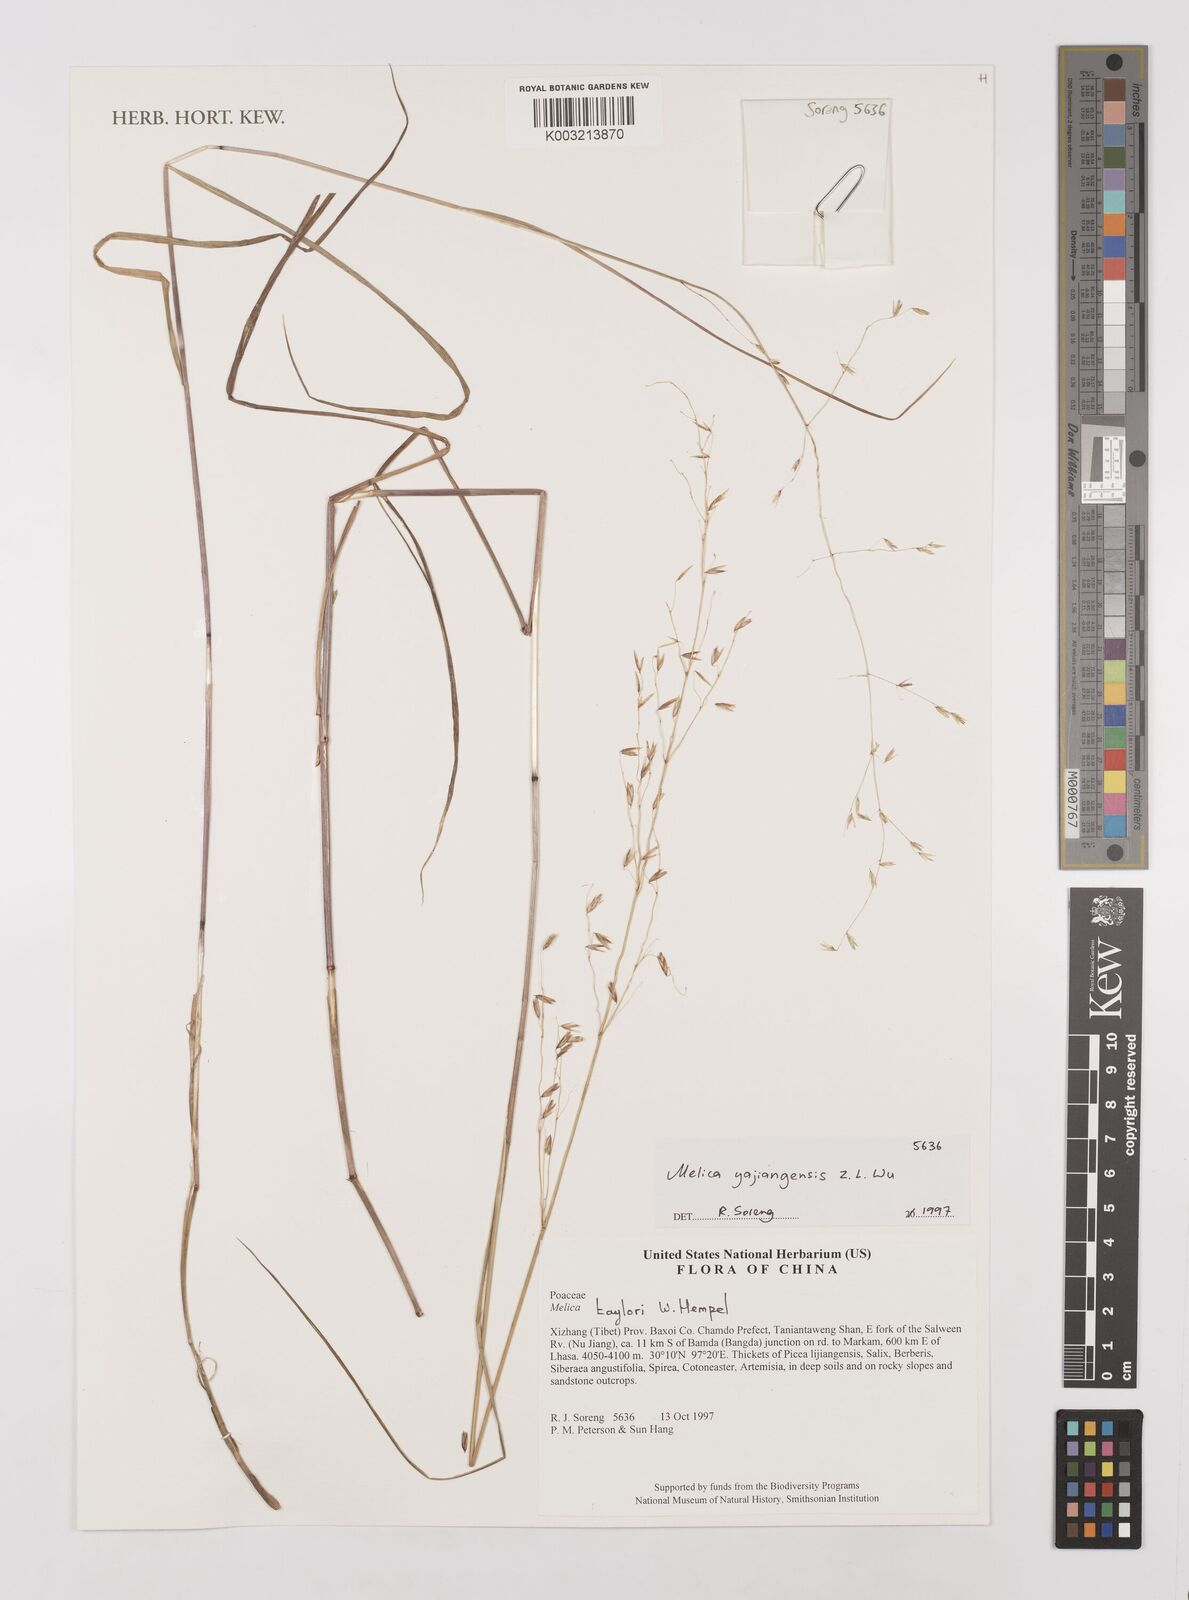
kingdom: Plantae
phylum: Tracheophyta
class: Liliopsida
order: Poales
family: Poaceae
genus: Melica
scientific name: Melica yajiangensis
